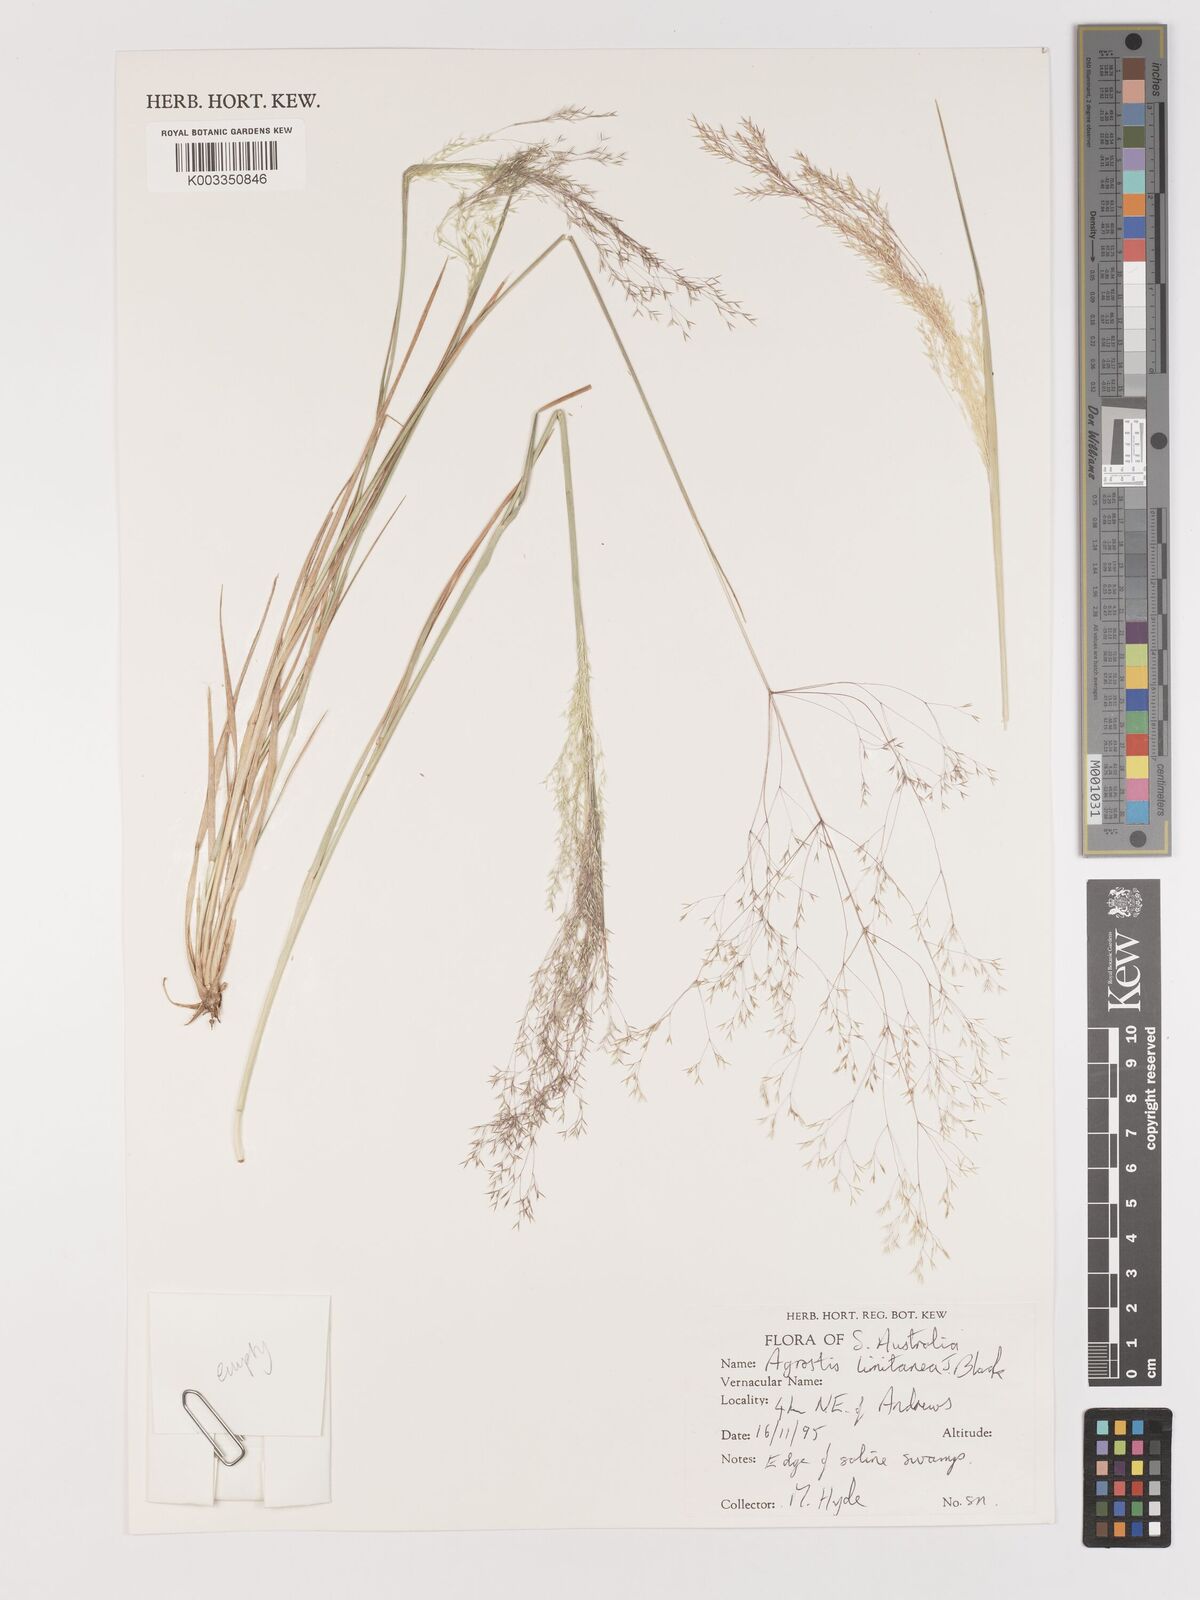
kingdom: Plantae
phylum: Tracheophyta
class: Liliopsida
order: Poales
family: Poaceae
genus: Lachnagrostis
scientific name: Lachnagrostis limitanea
